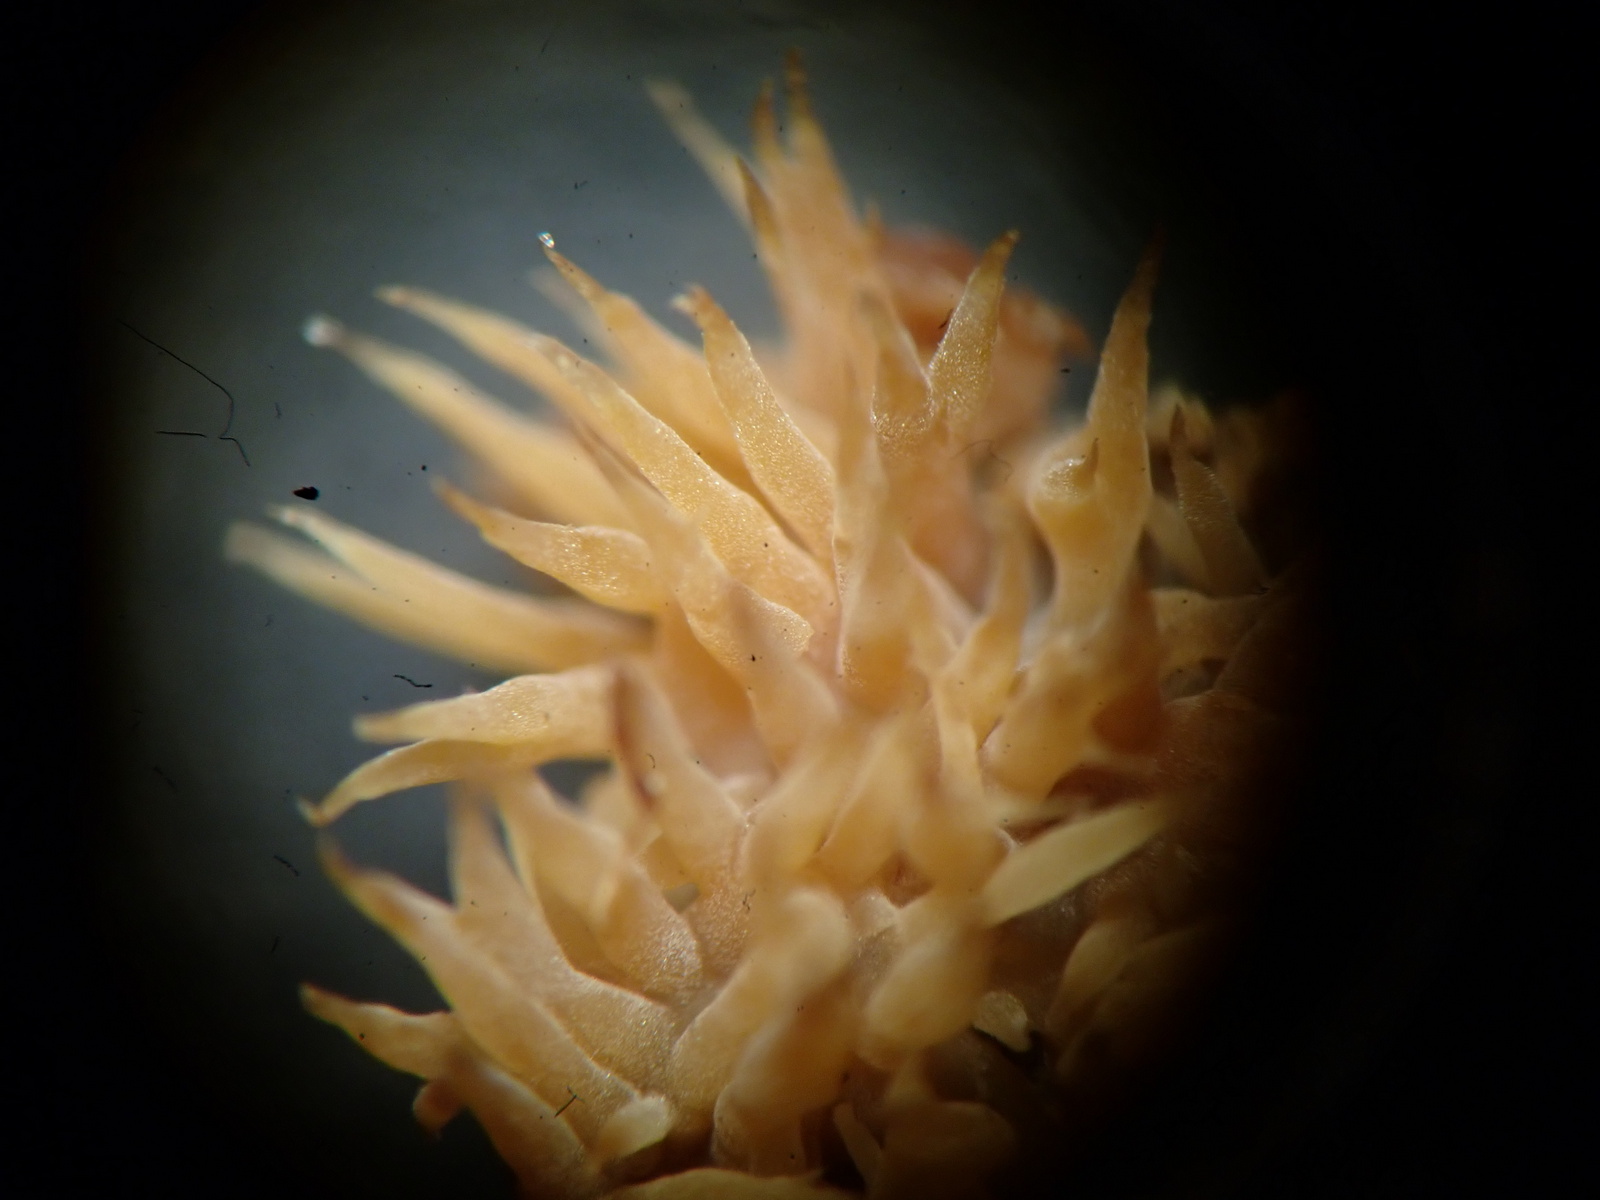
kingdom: Fungi
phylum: Basidiomycota
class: Agaricomycetes
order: Polyporales
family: Meruliaceae
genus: Mycoacia
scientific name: Mycoacia uda
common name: citrongul vokspig
